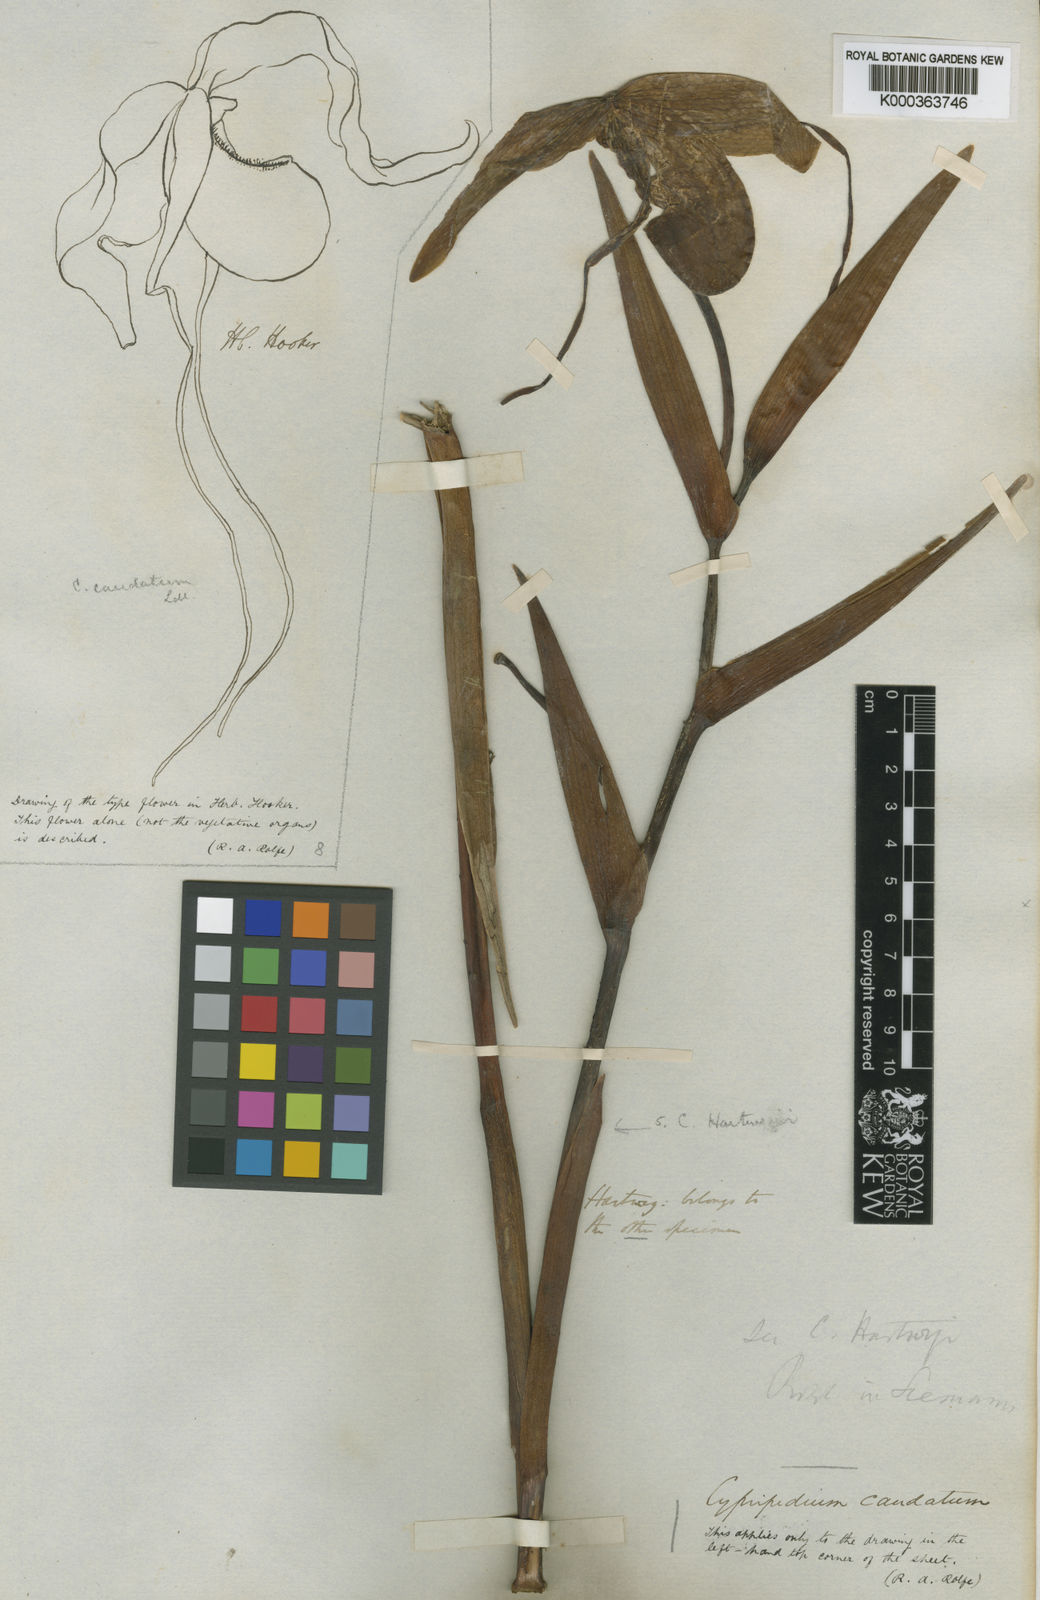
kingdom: Plantae
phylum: Tracheophyta
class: Liliopsida
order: Asparagales
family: Orchidaceae
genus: Phragmipedium
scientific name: Phragmipedium longifolium
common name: Long-leaf phragmipedium
